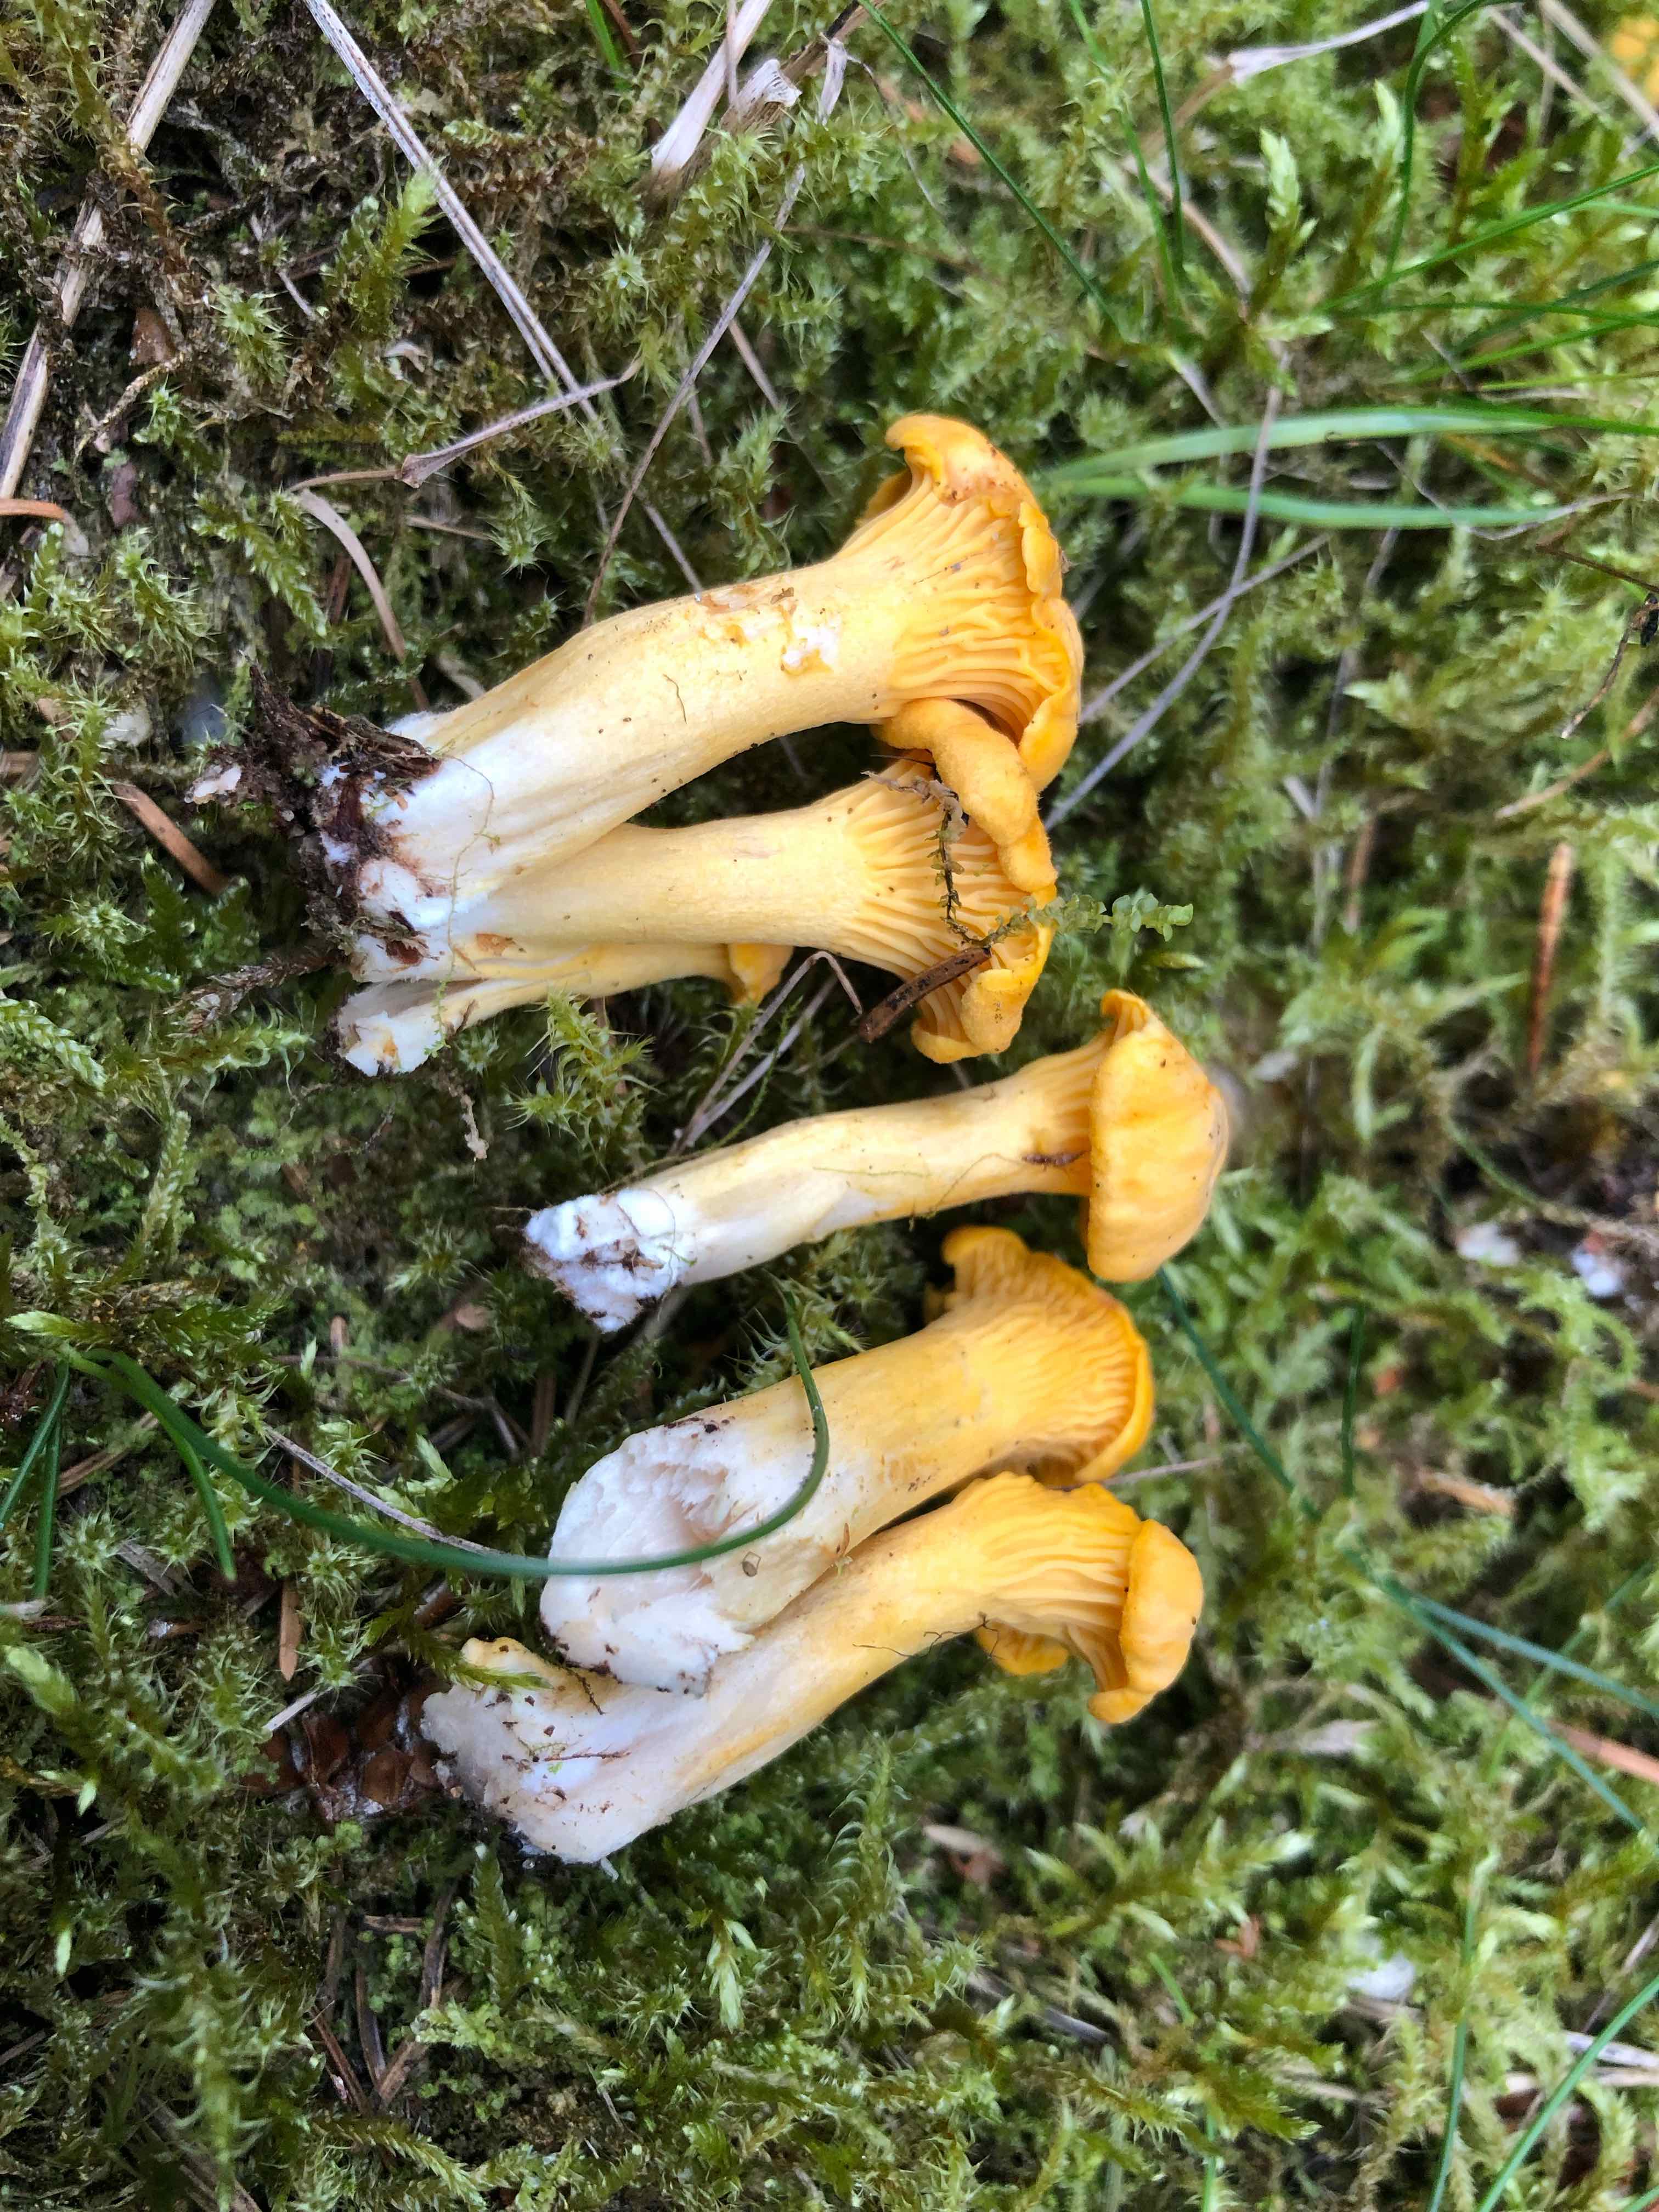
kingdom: Fungi
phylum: Basidiomycota
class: Agaricomycetes
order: Cantharellales
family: Hydnaceae
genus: Cantharellus
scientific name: Cantharellus cibarius
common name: almindelig kantarel
